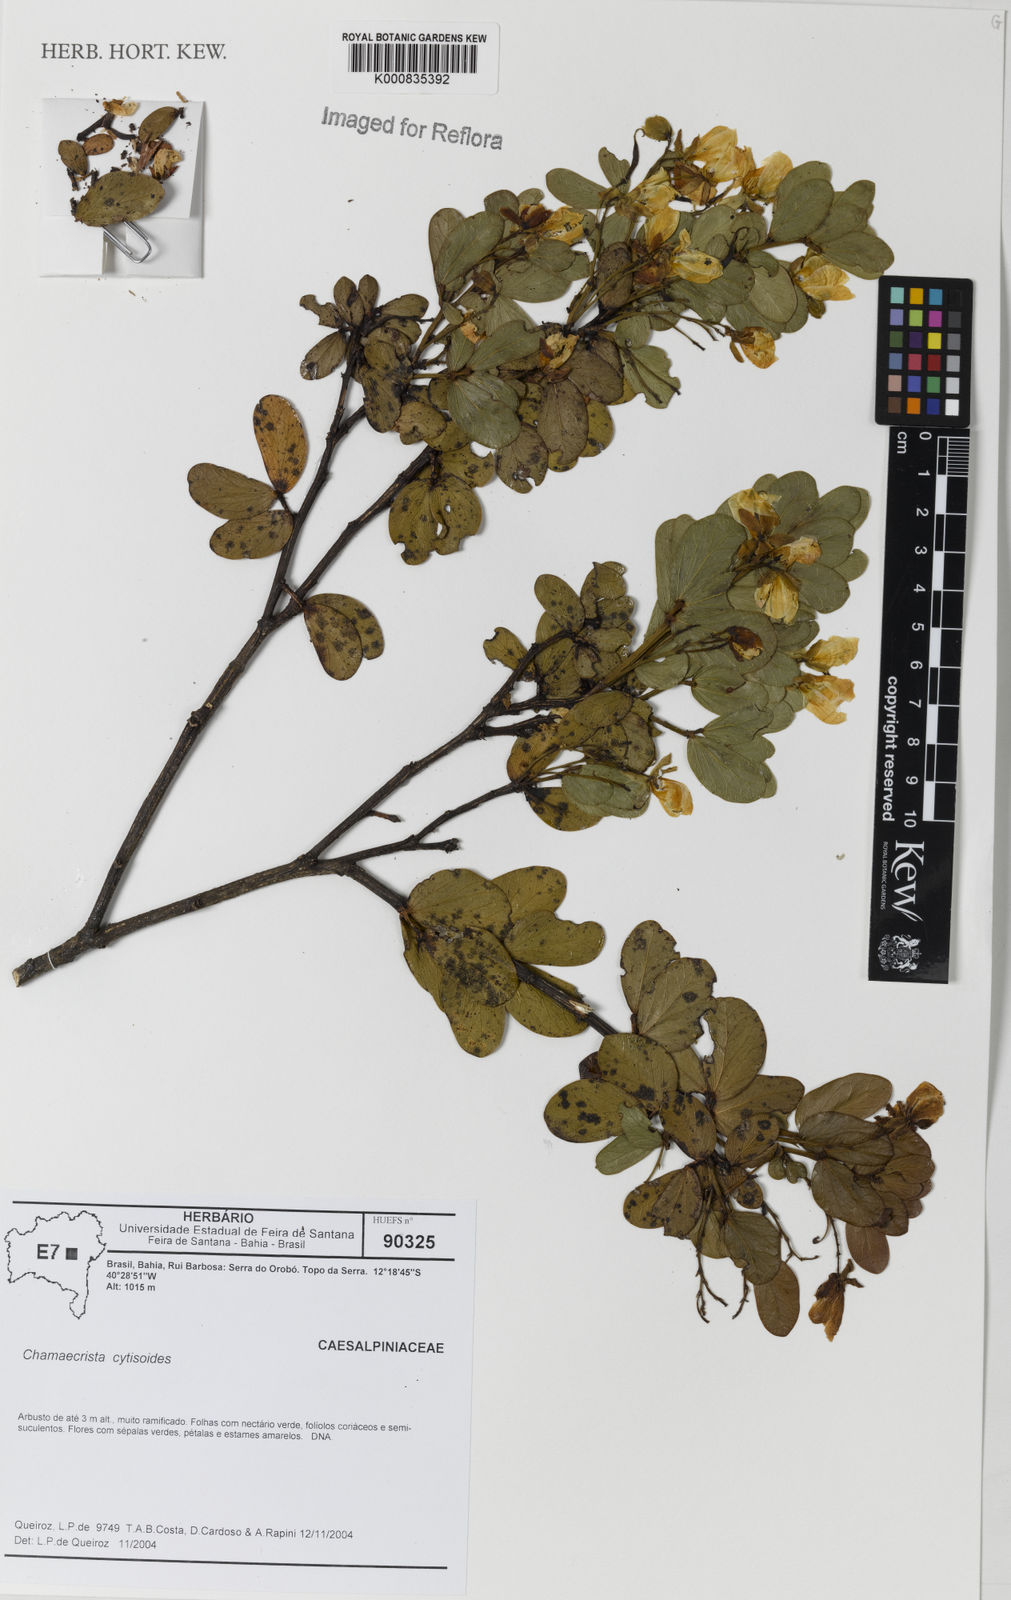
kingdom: Plantae
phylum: Tracheophyta
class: Magnoliopsida
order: Fabales
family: Fabaceae
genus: Chamaecrista
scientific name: Chamaecrista brachystachya
